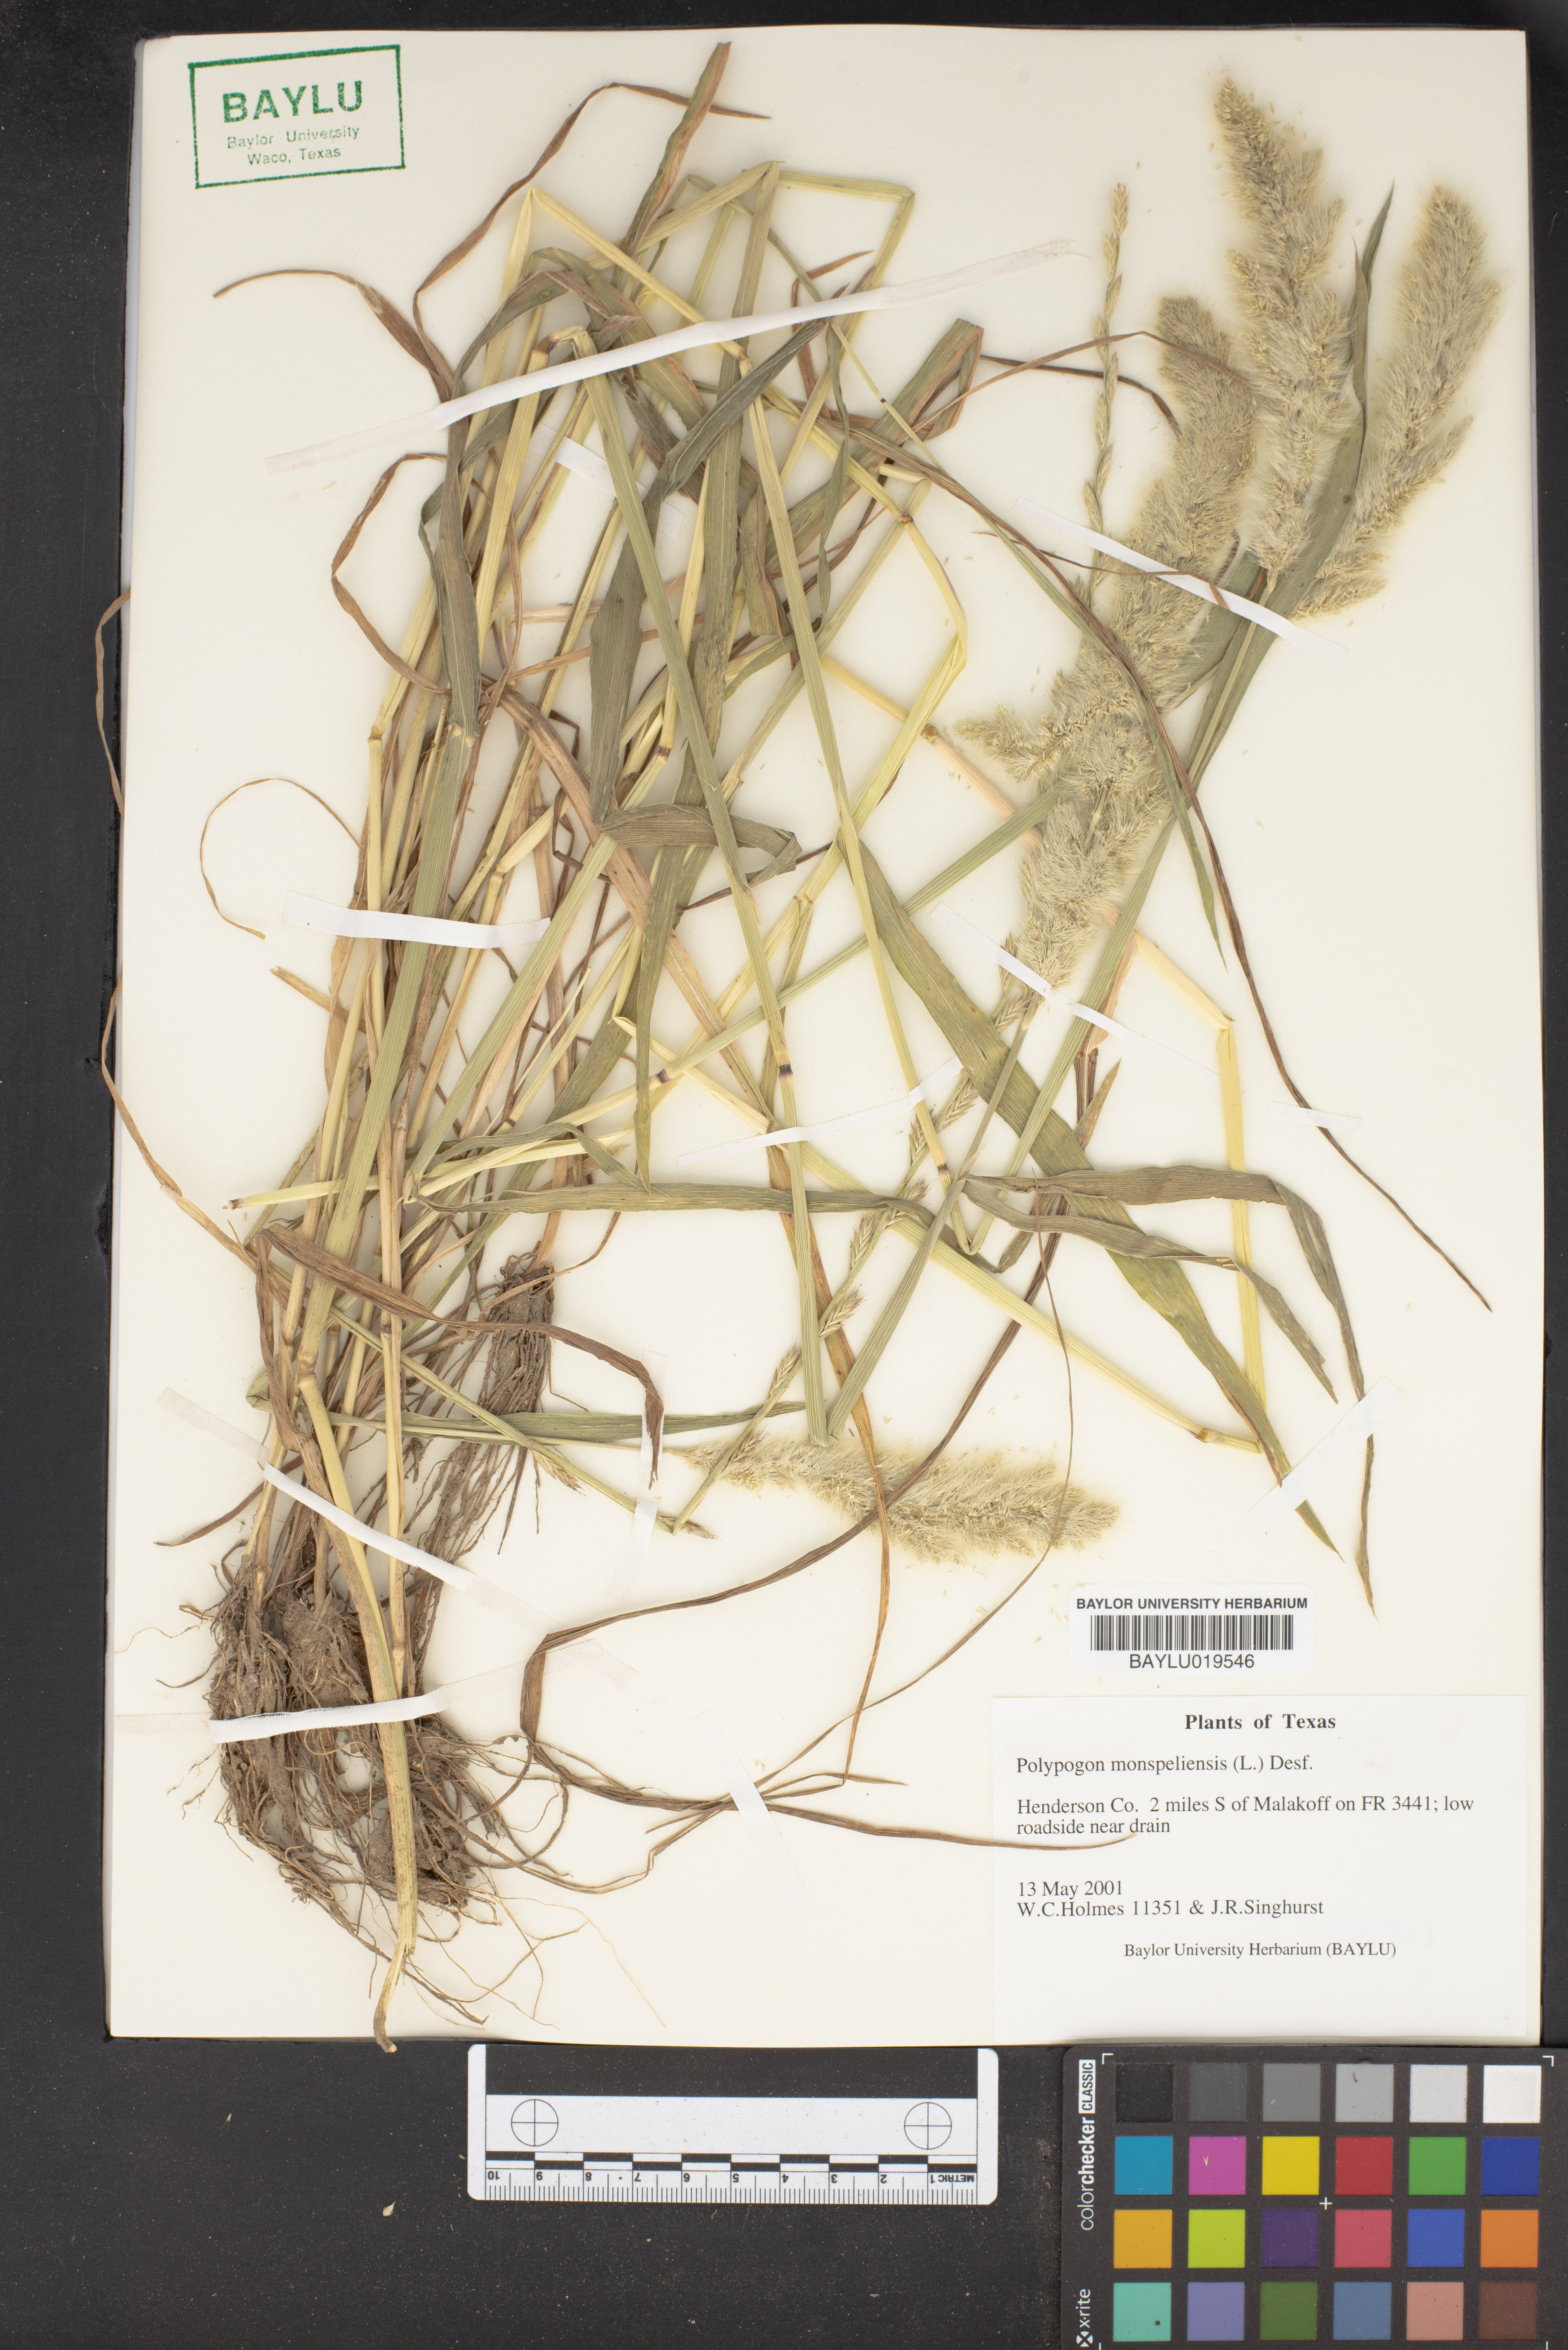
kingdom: Plantae
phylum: Tracheophyta
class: Liliopsida
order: Poales
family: Poaceae
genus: Polypogon
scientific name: Polypogon monspeliensis
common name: Annual rabbitsfoot grass
